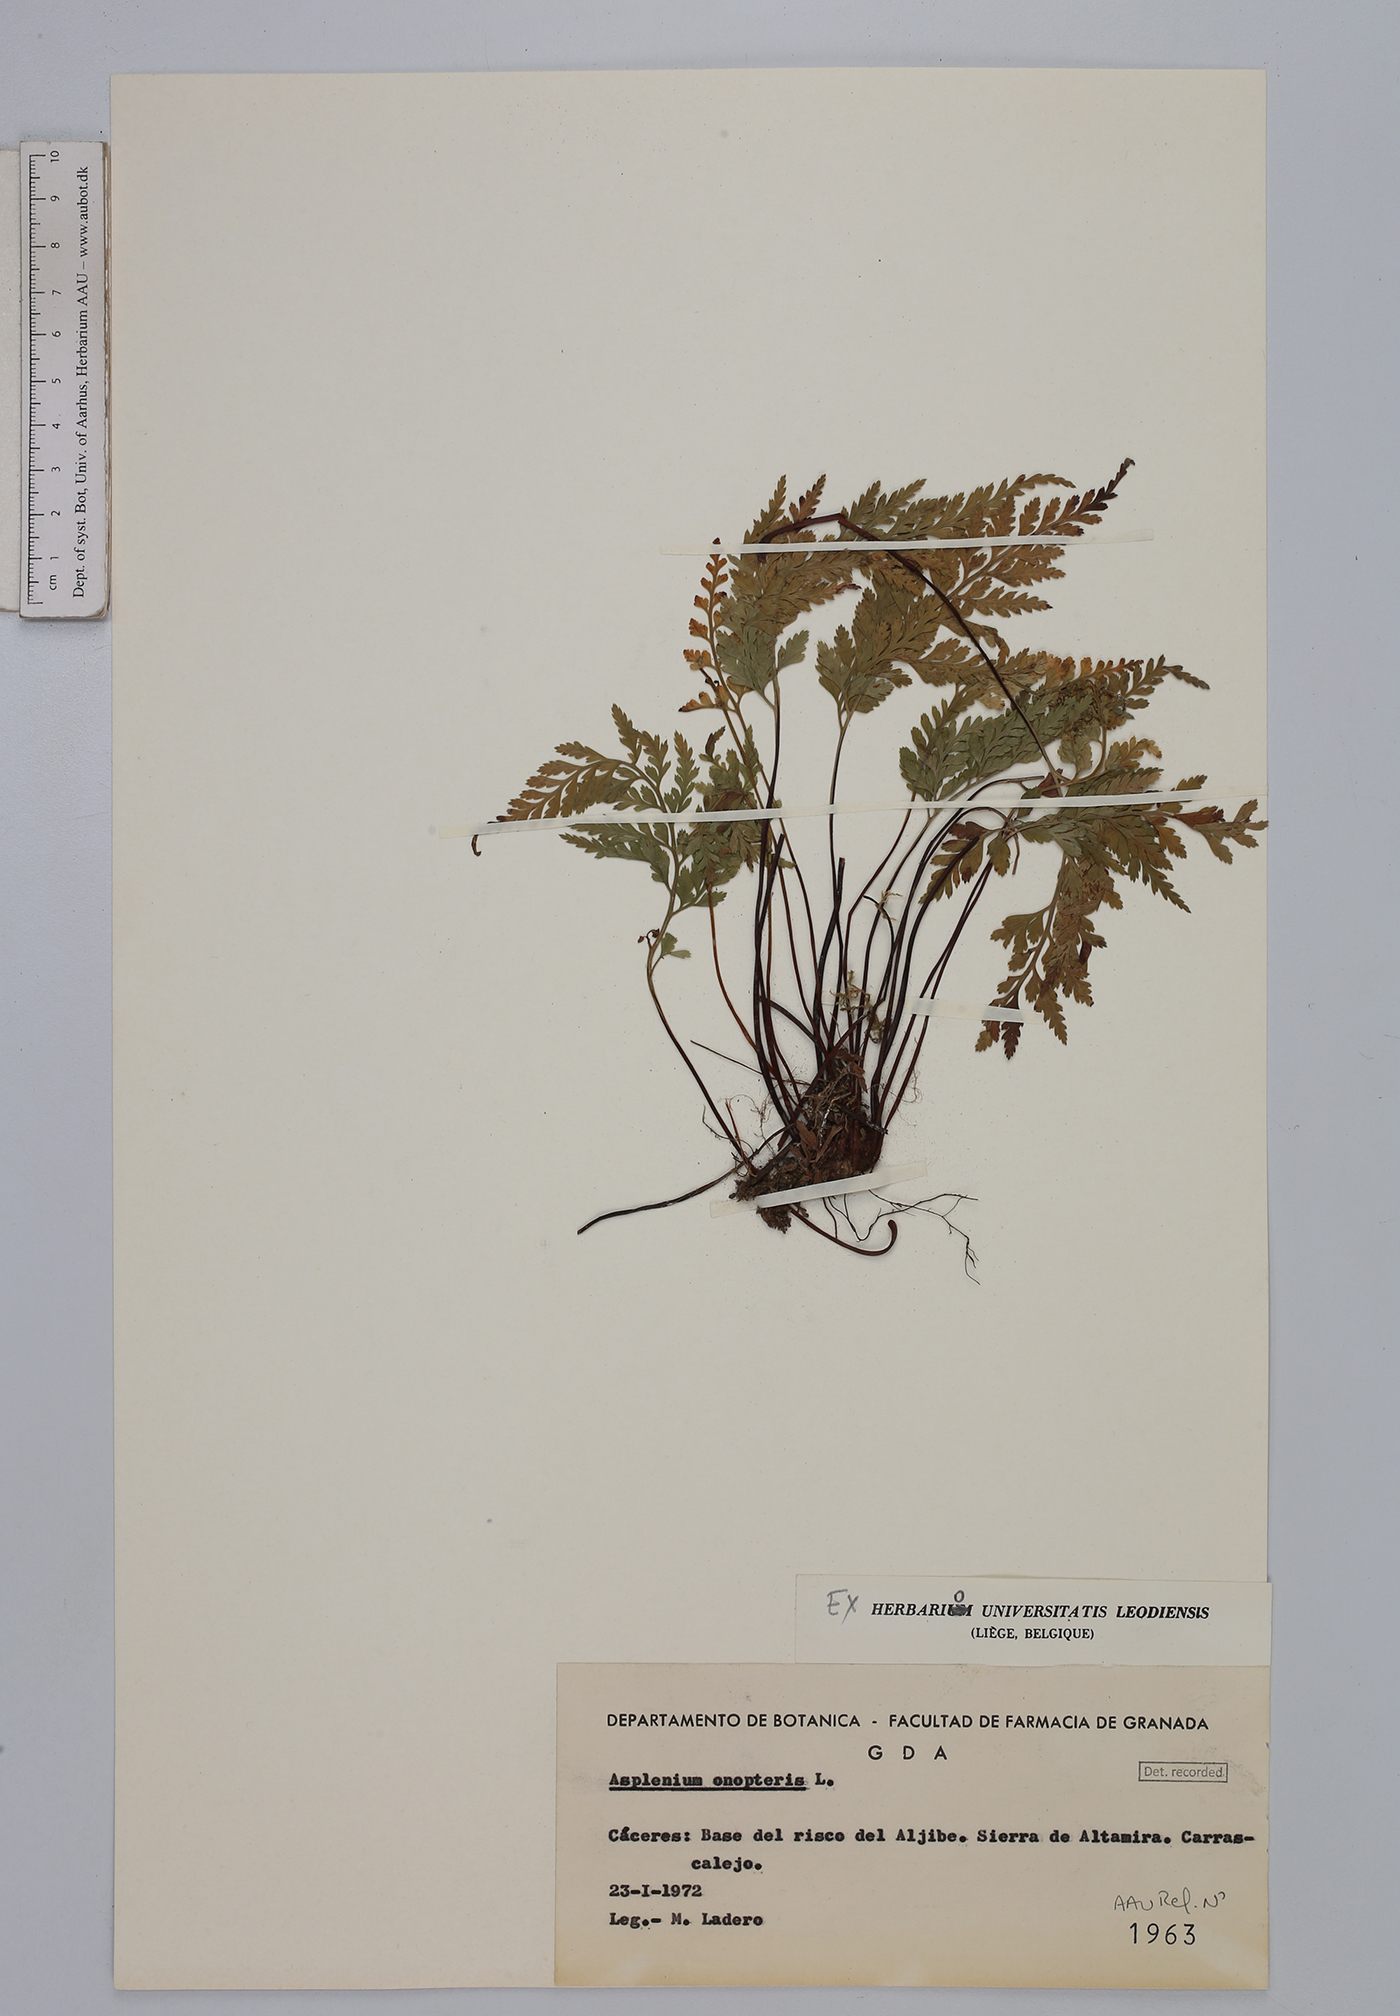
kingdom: Plantae
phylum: Tracheophyta
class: Polypodiopsida
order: Polypodiales
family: Aspleniaceae
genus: Asplenium
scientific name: Asplenium onopteris
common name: Irish spleenwort
